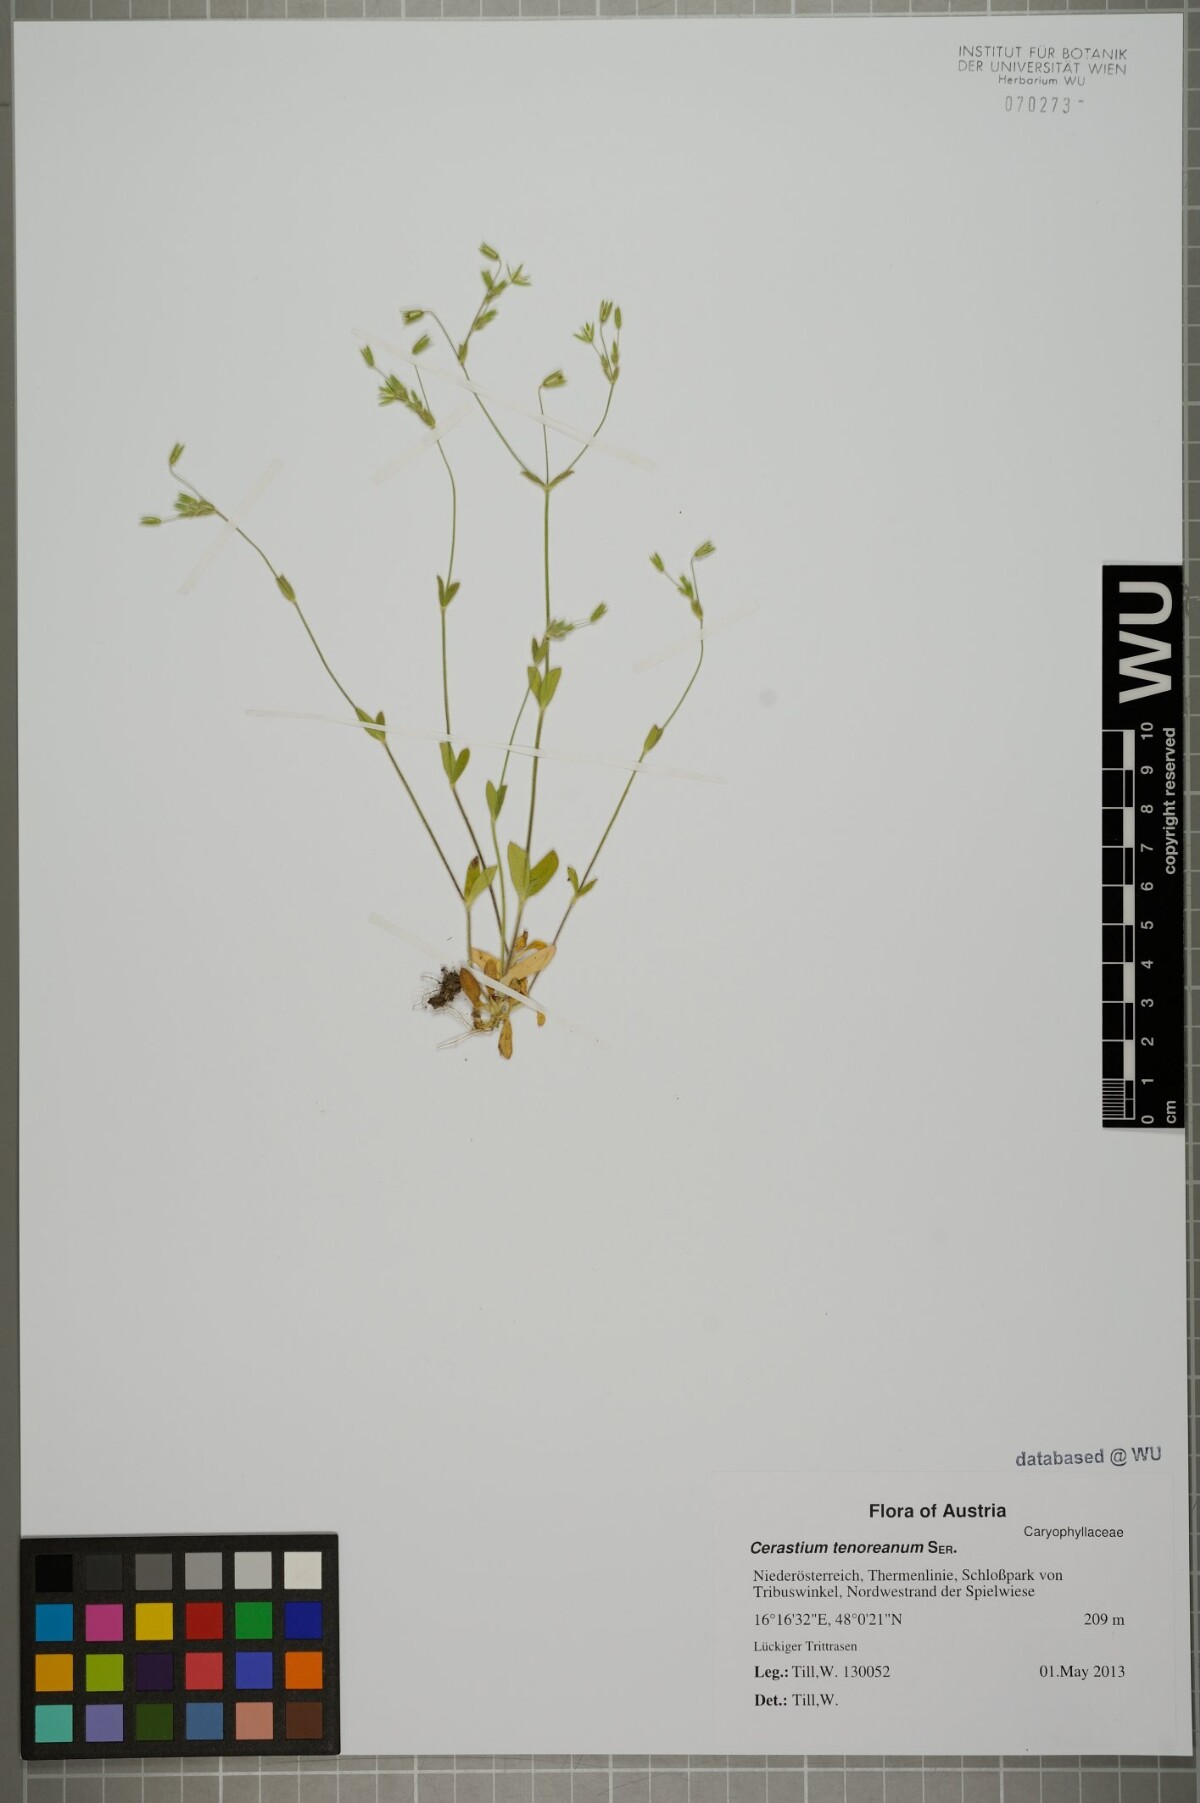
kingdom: Plantae
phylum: Tracheophyta
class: Magnoliopsida
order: Caryophyllales
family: Caryophyllaceae
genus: Cerastium
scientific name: Cerastium tenoreanum
